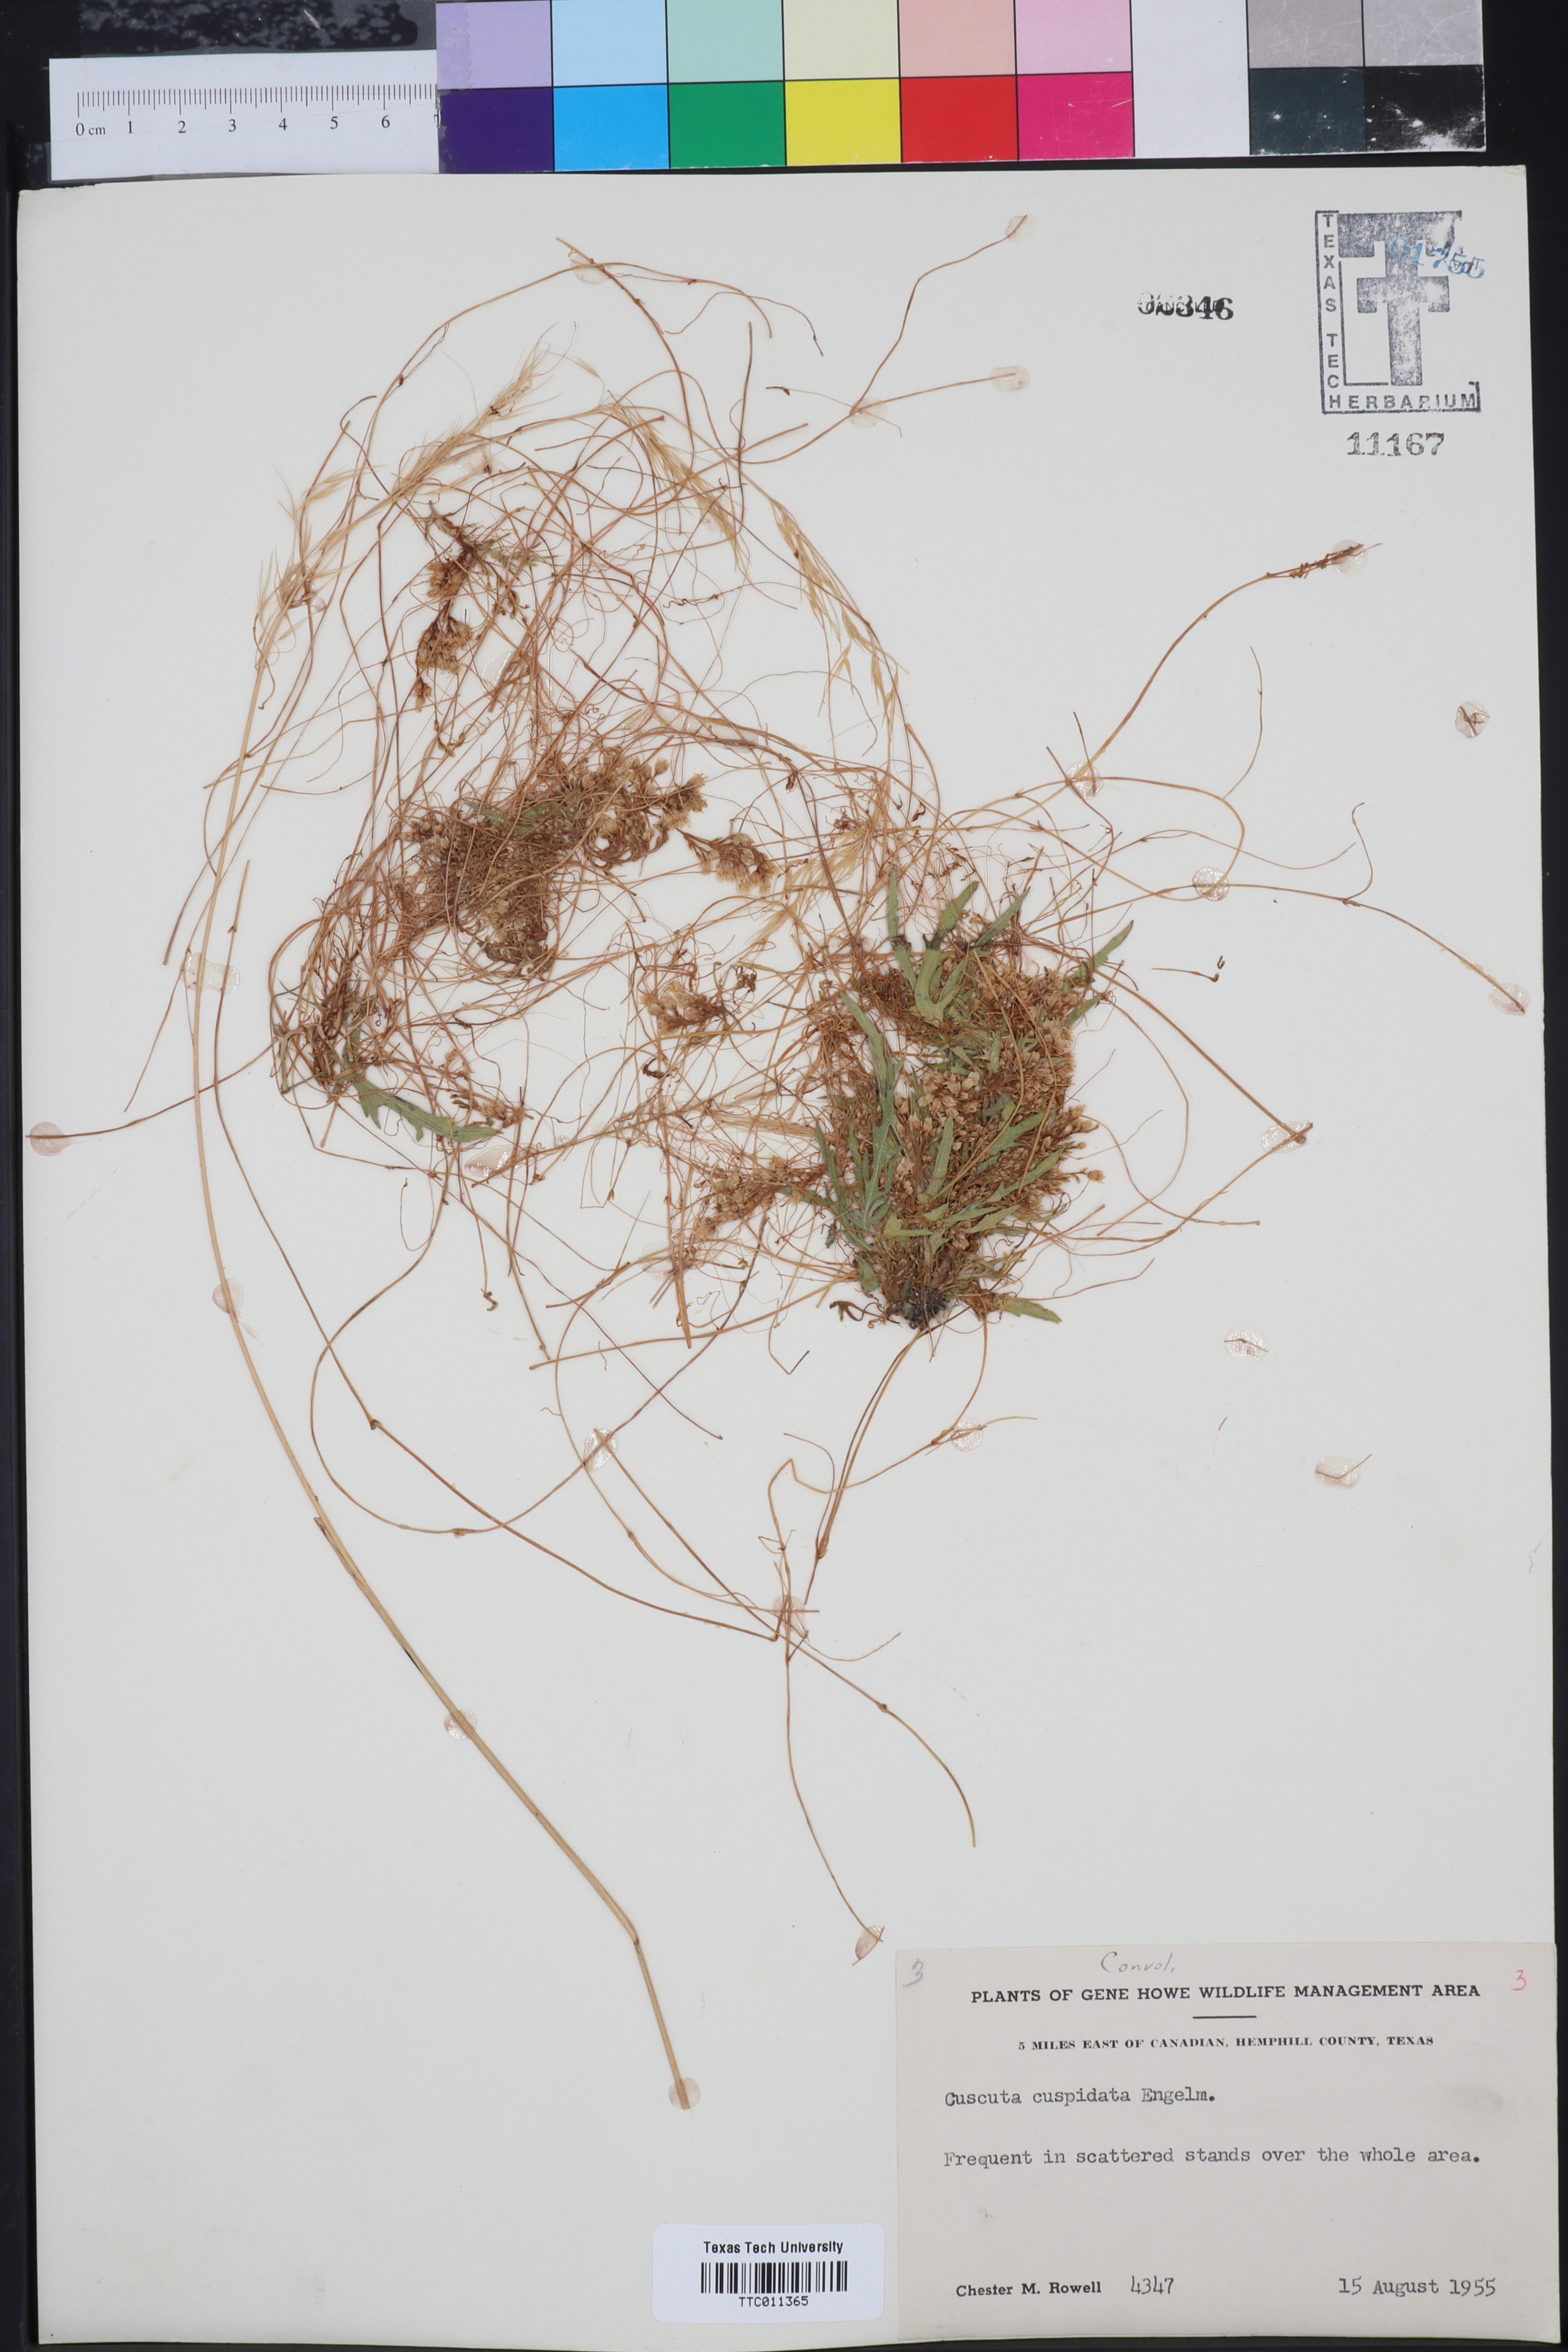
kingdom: Plantae
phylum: Tracheophyta
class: Magnoliopsida
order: Solanales
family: Convolvulaceae
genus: Cressa
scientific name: Cressa
